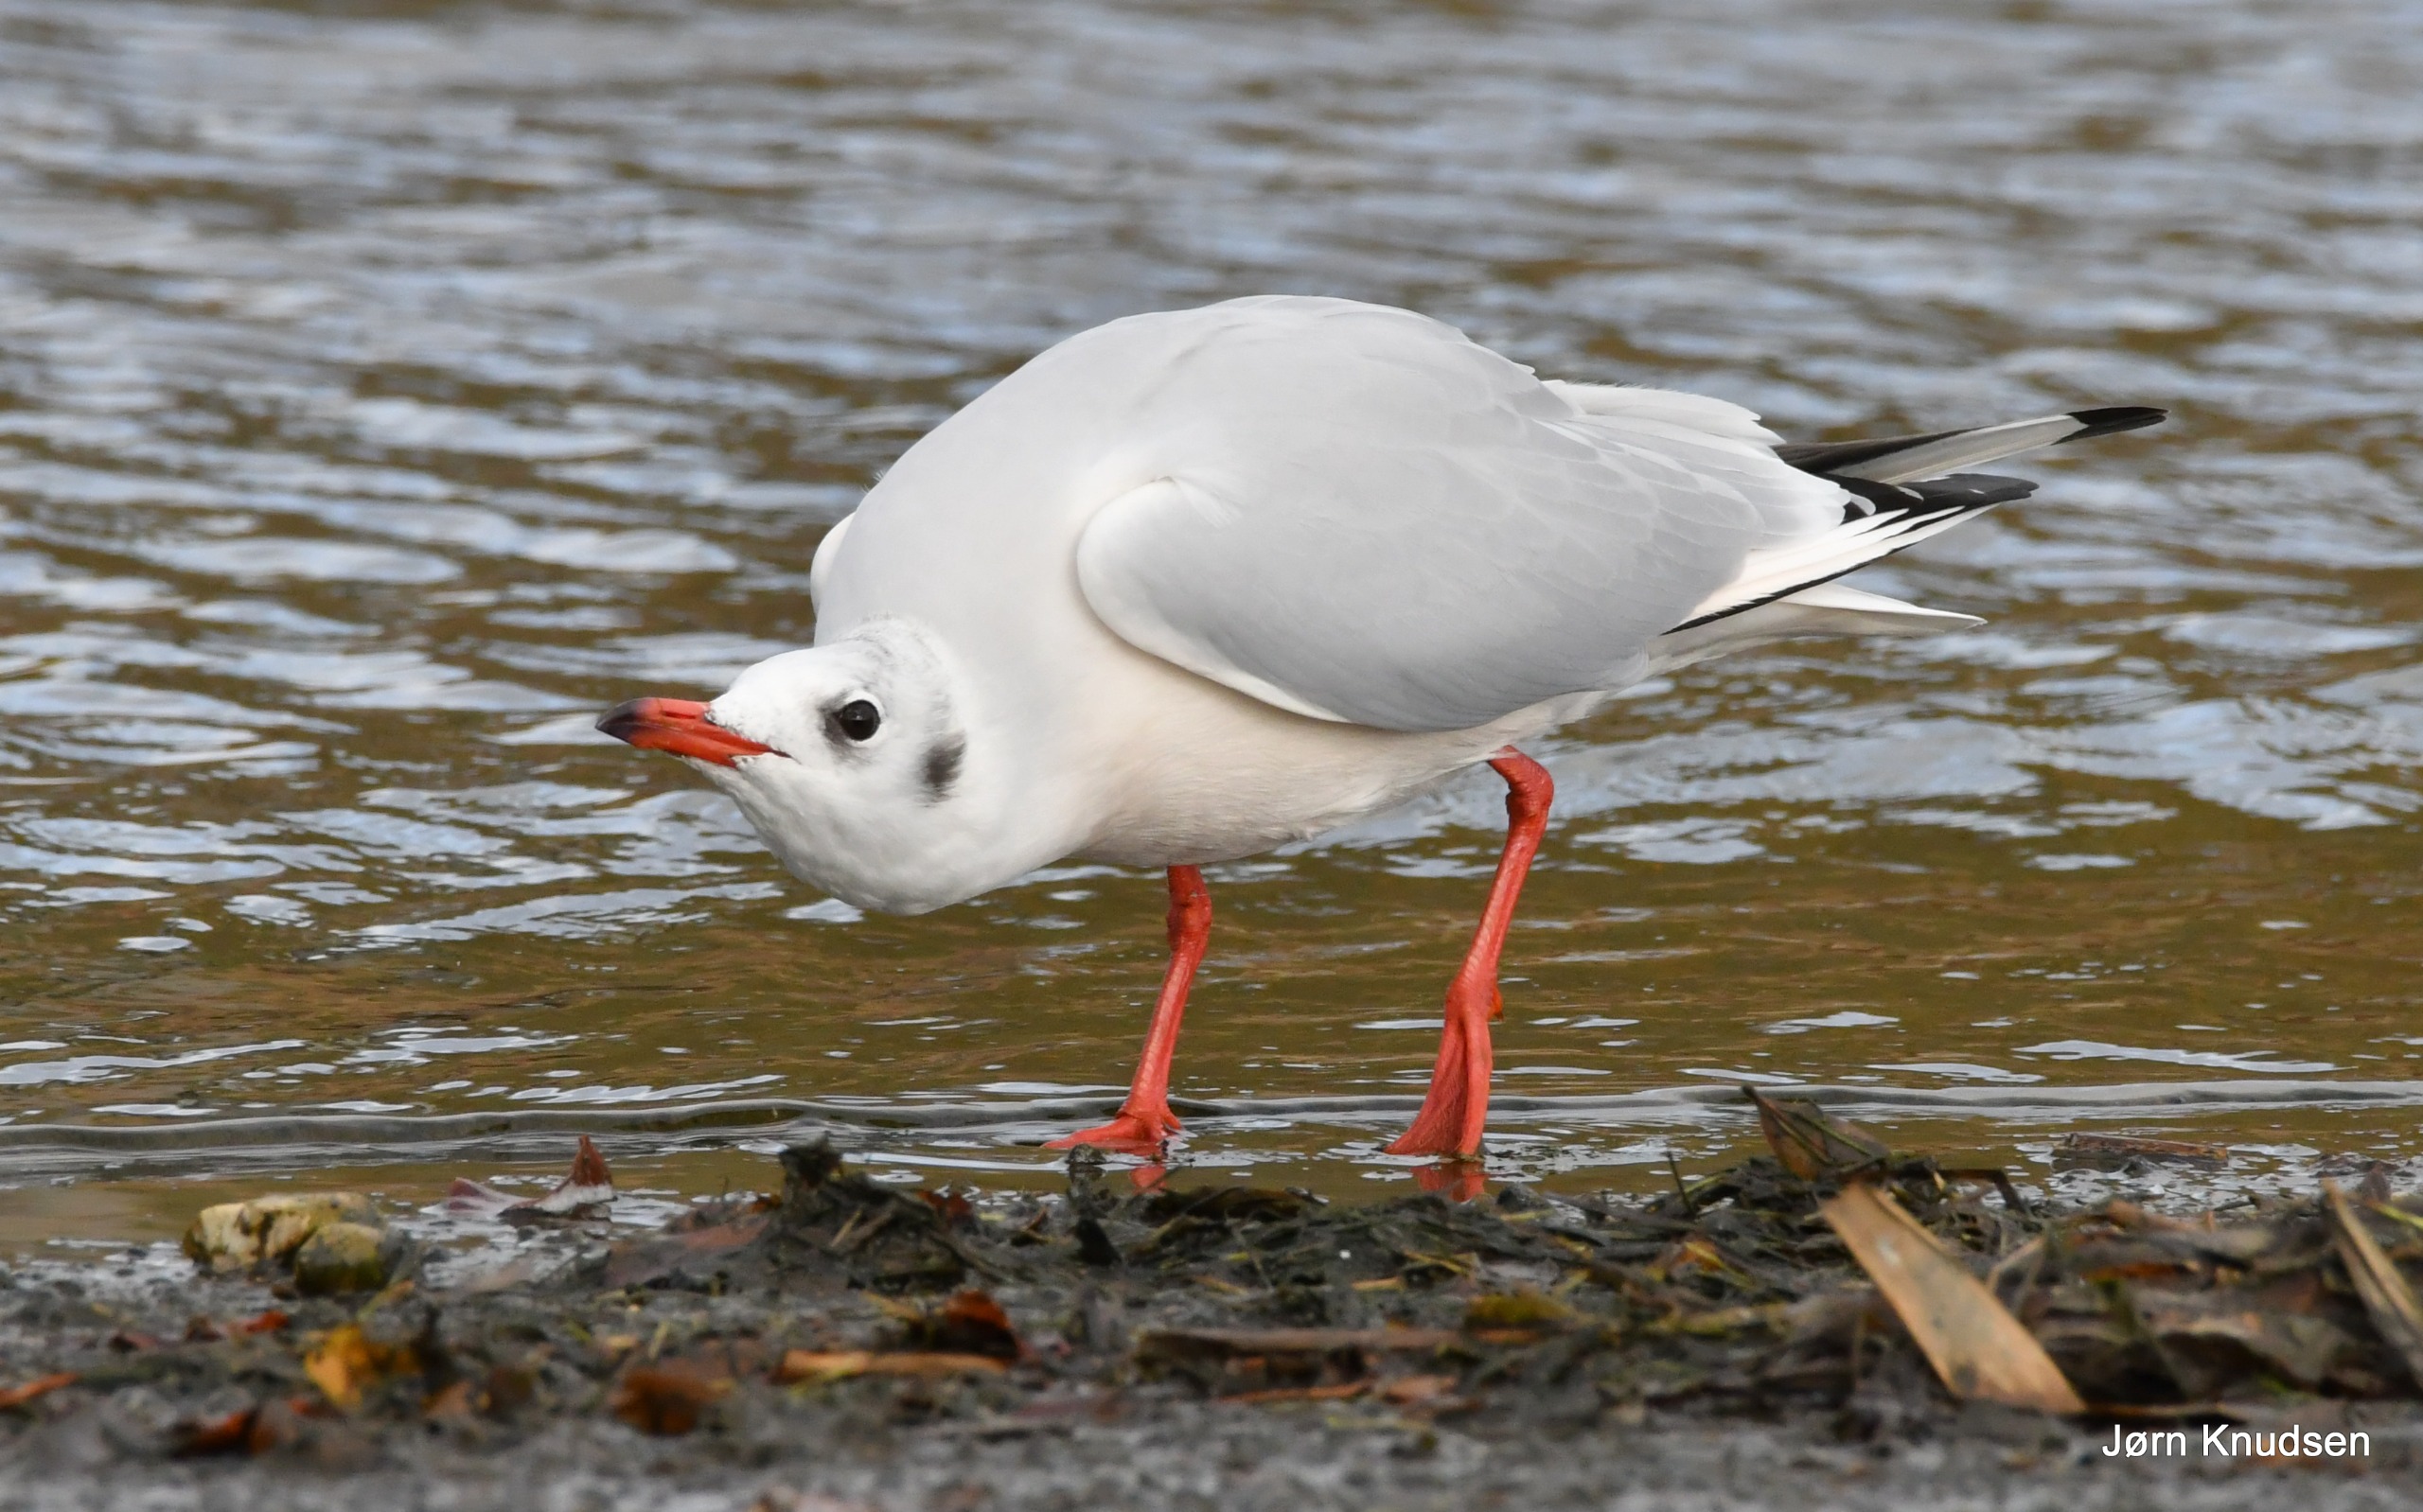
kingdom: Animalia
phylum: Chordata
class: Aves
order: Charadriiformes
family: Laridae
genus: Chroicocephalus
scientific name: Chroicocephalus ridibundus
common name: Hættemåge
